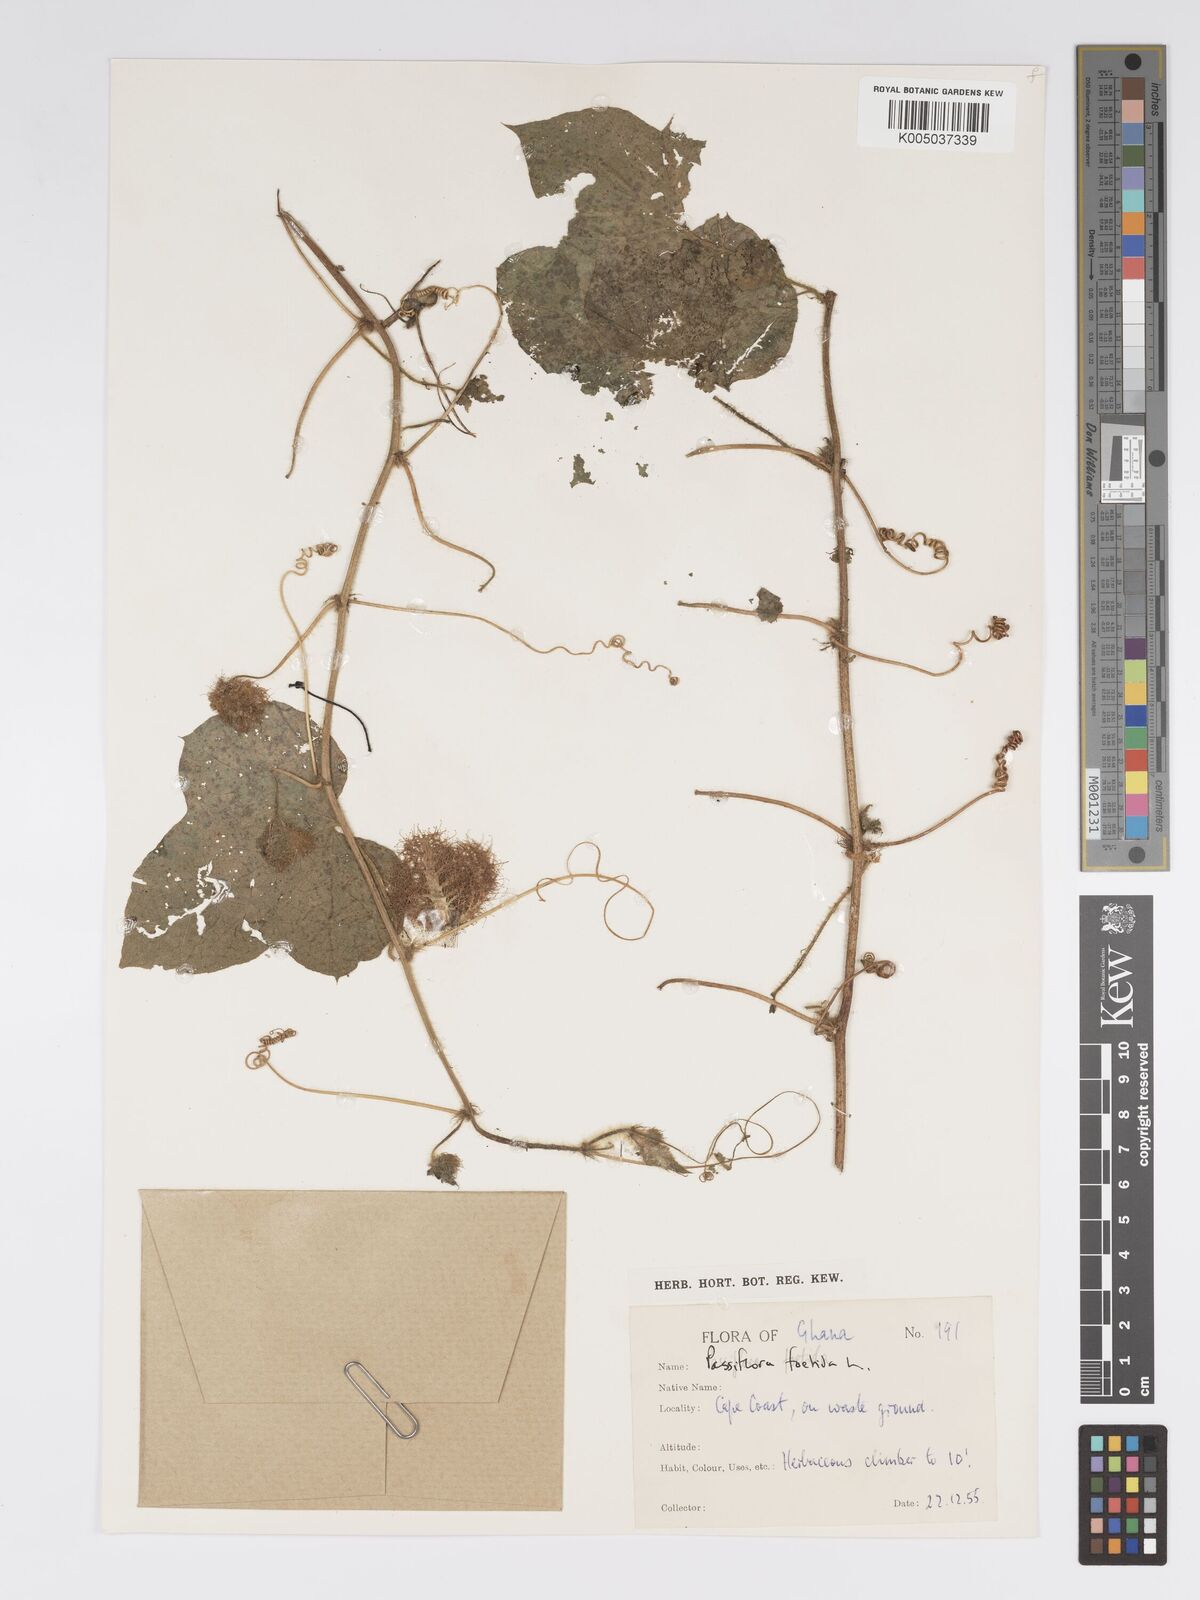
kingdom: Plantae
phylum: Tracheophyta
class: Magnoliopsida
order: Malpighiales
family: Passifloraceae
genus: Passiflora
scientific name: Passiflora foetida
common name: Fetid passionflower
